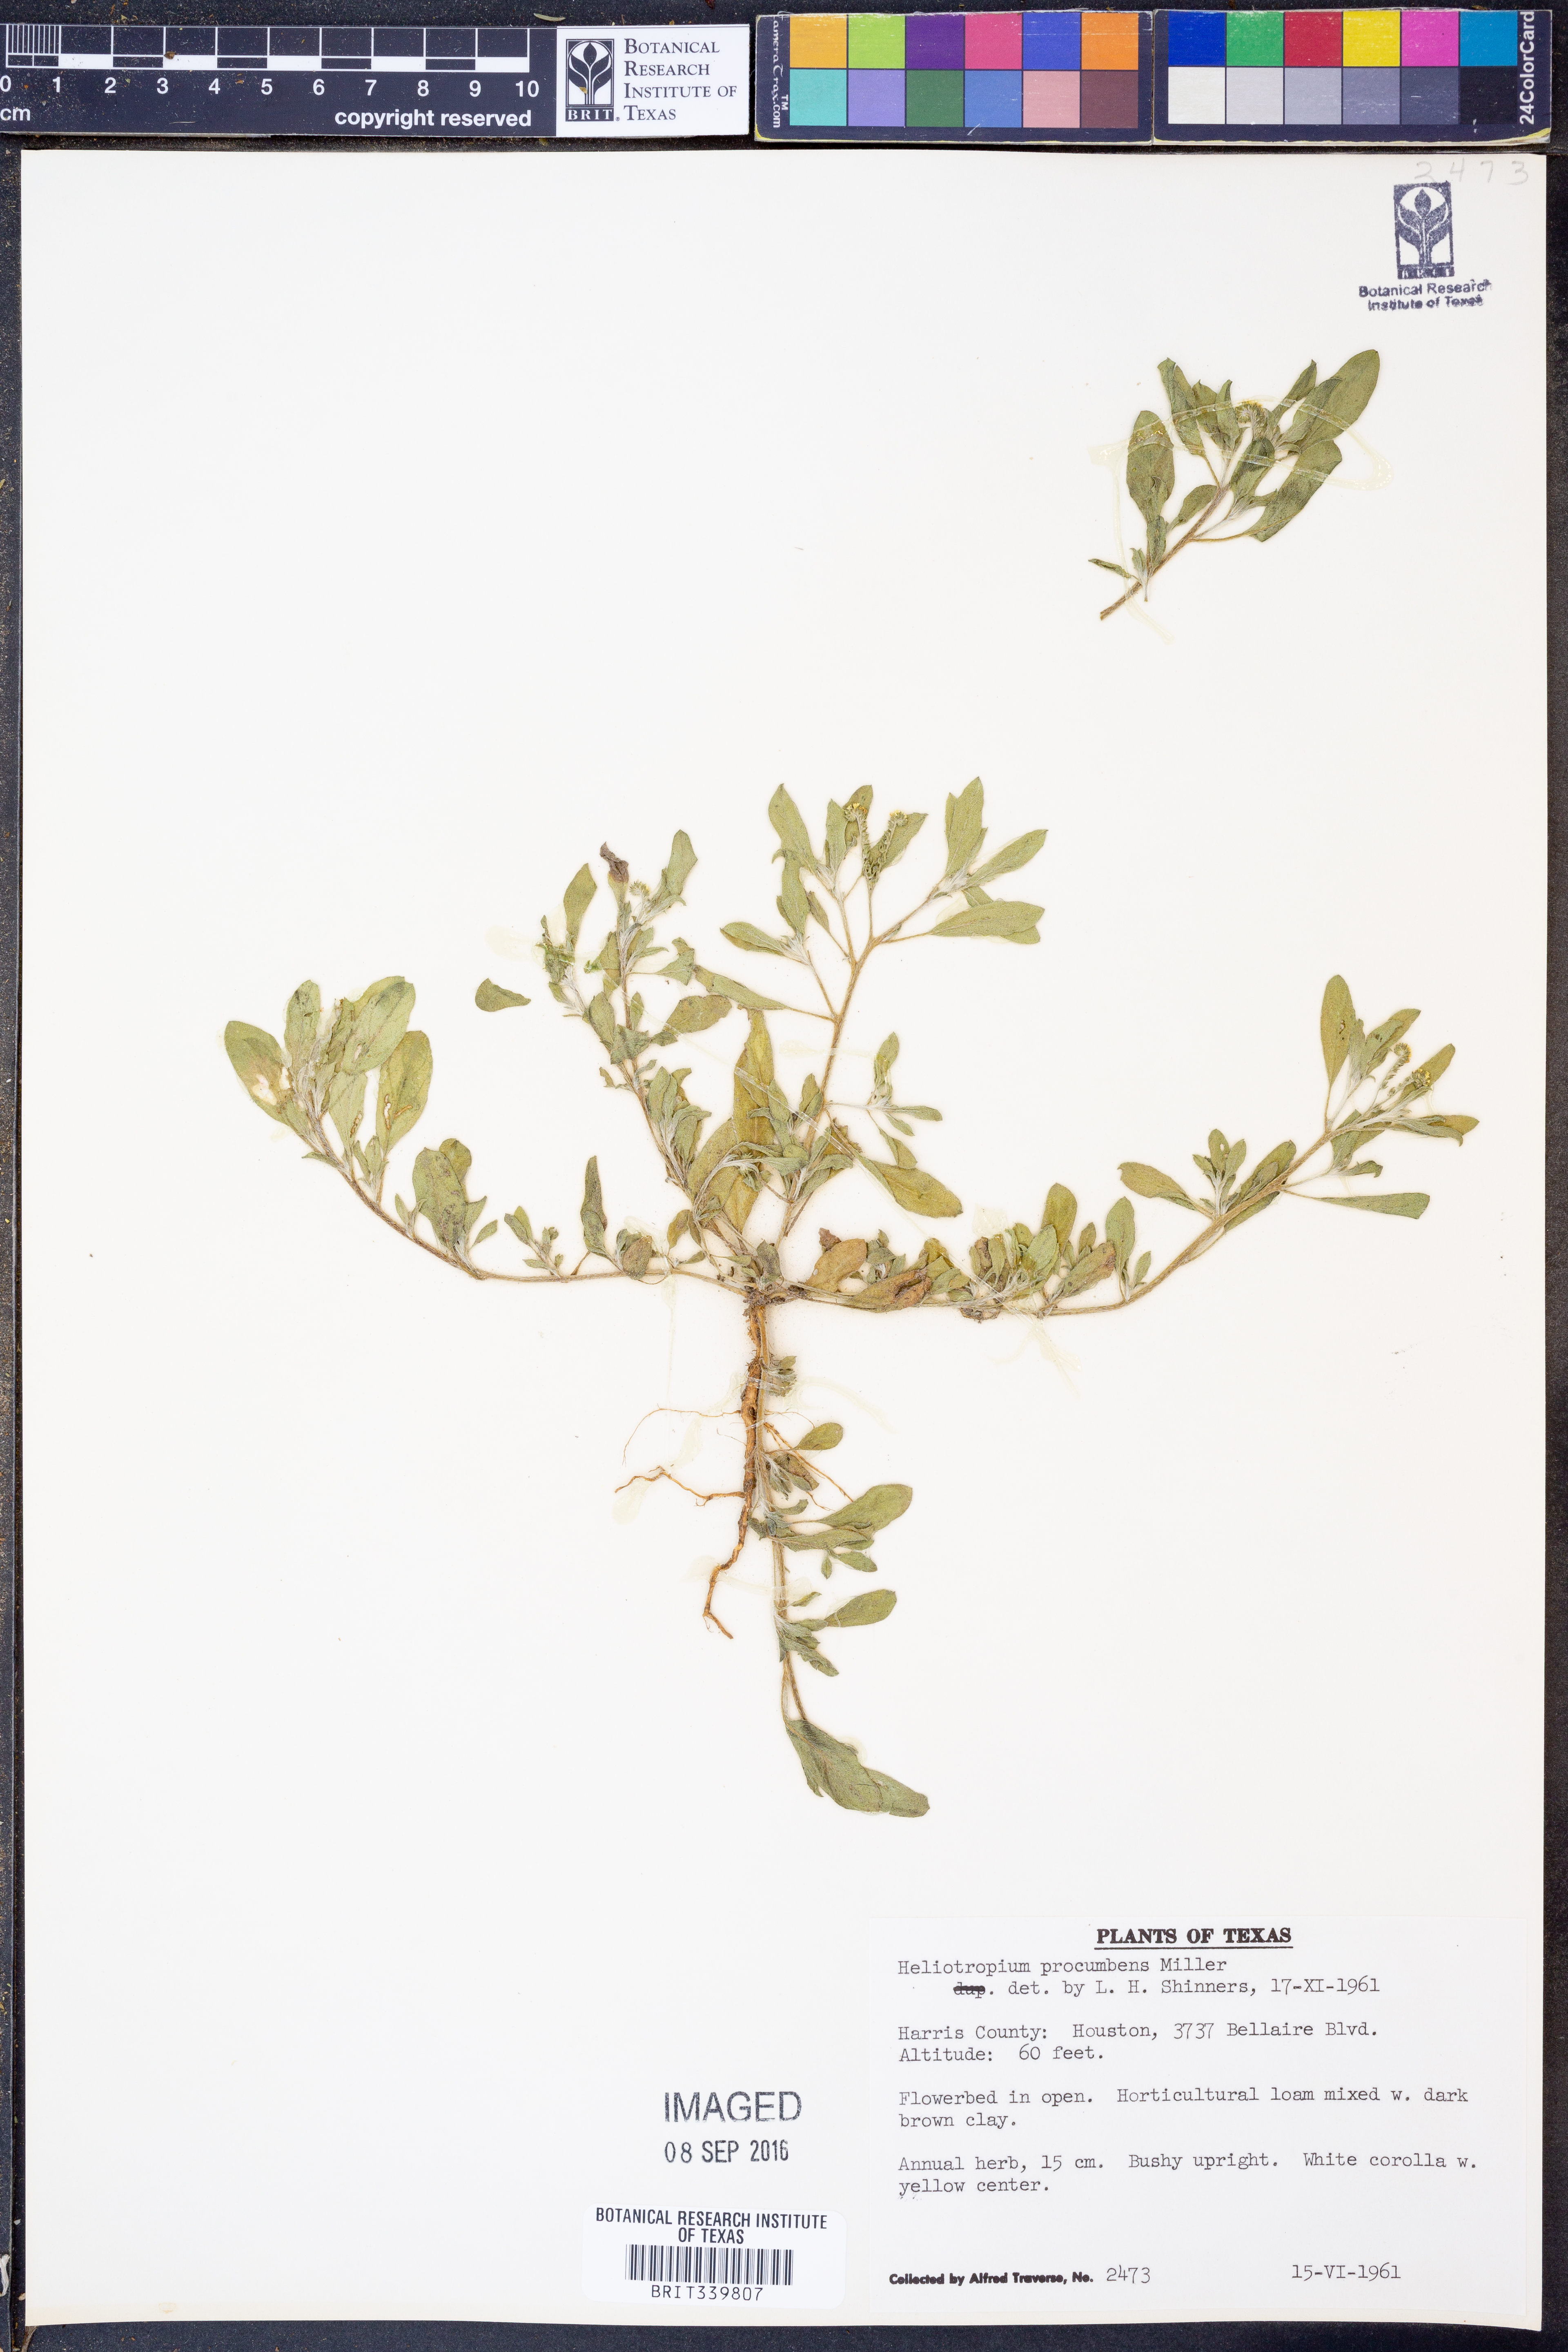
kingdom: Plantae
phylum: Tracheophyta
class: Magnoliopsida
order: Boraginales
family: Heliotropiaceae
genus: Euploca
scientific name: Euploca procumbens
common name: Fourspike heliotrope
